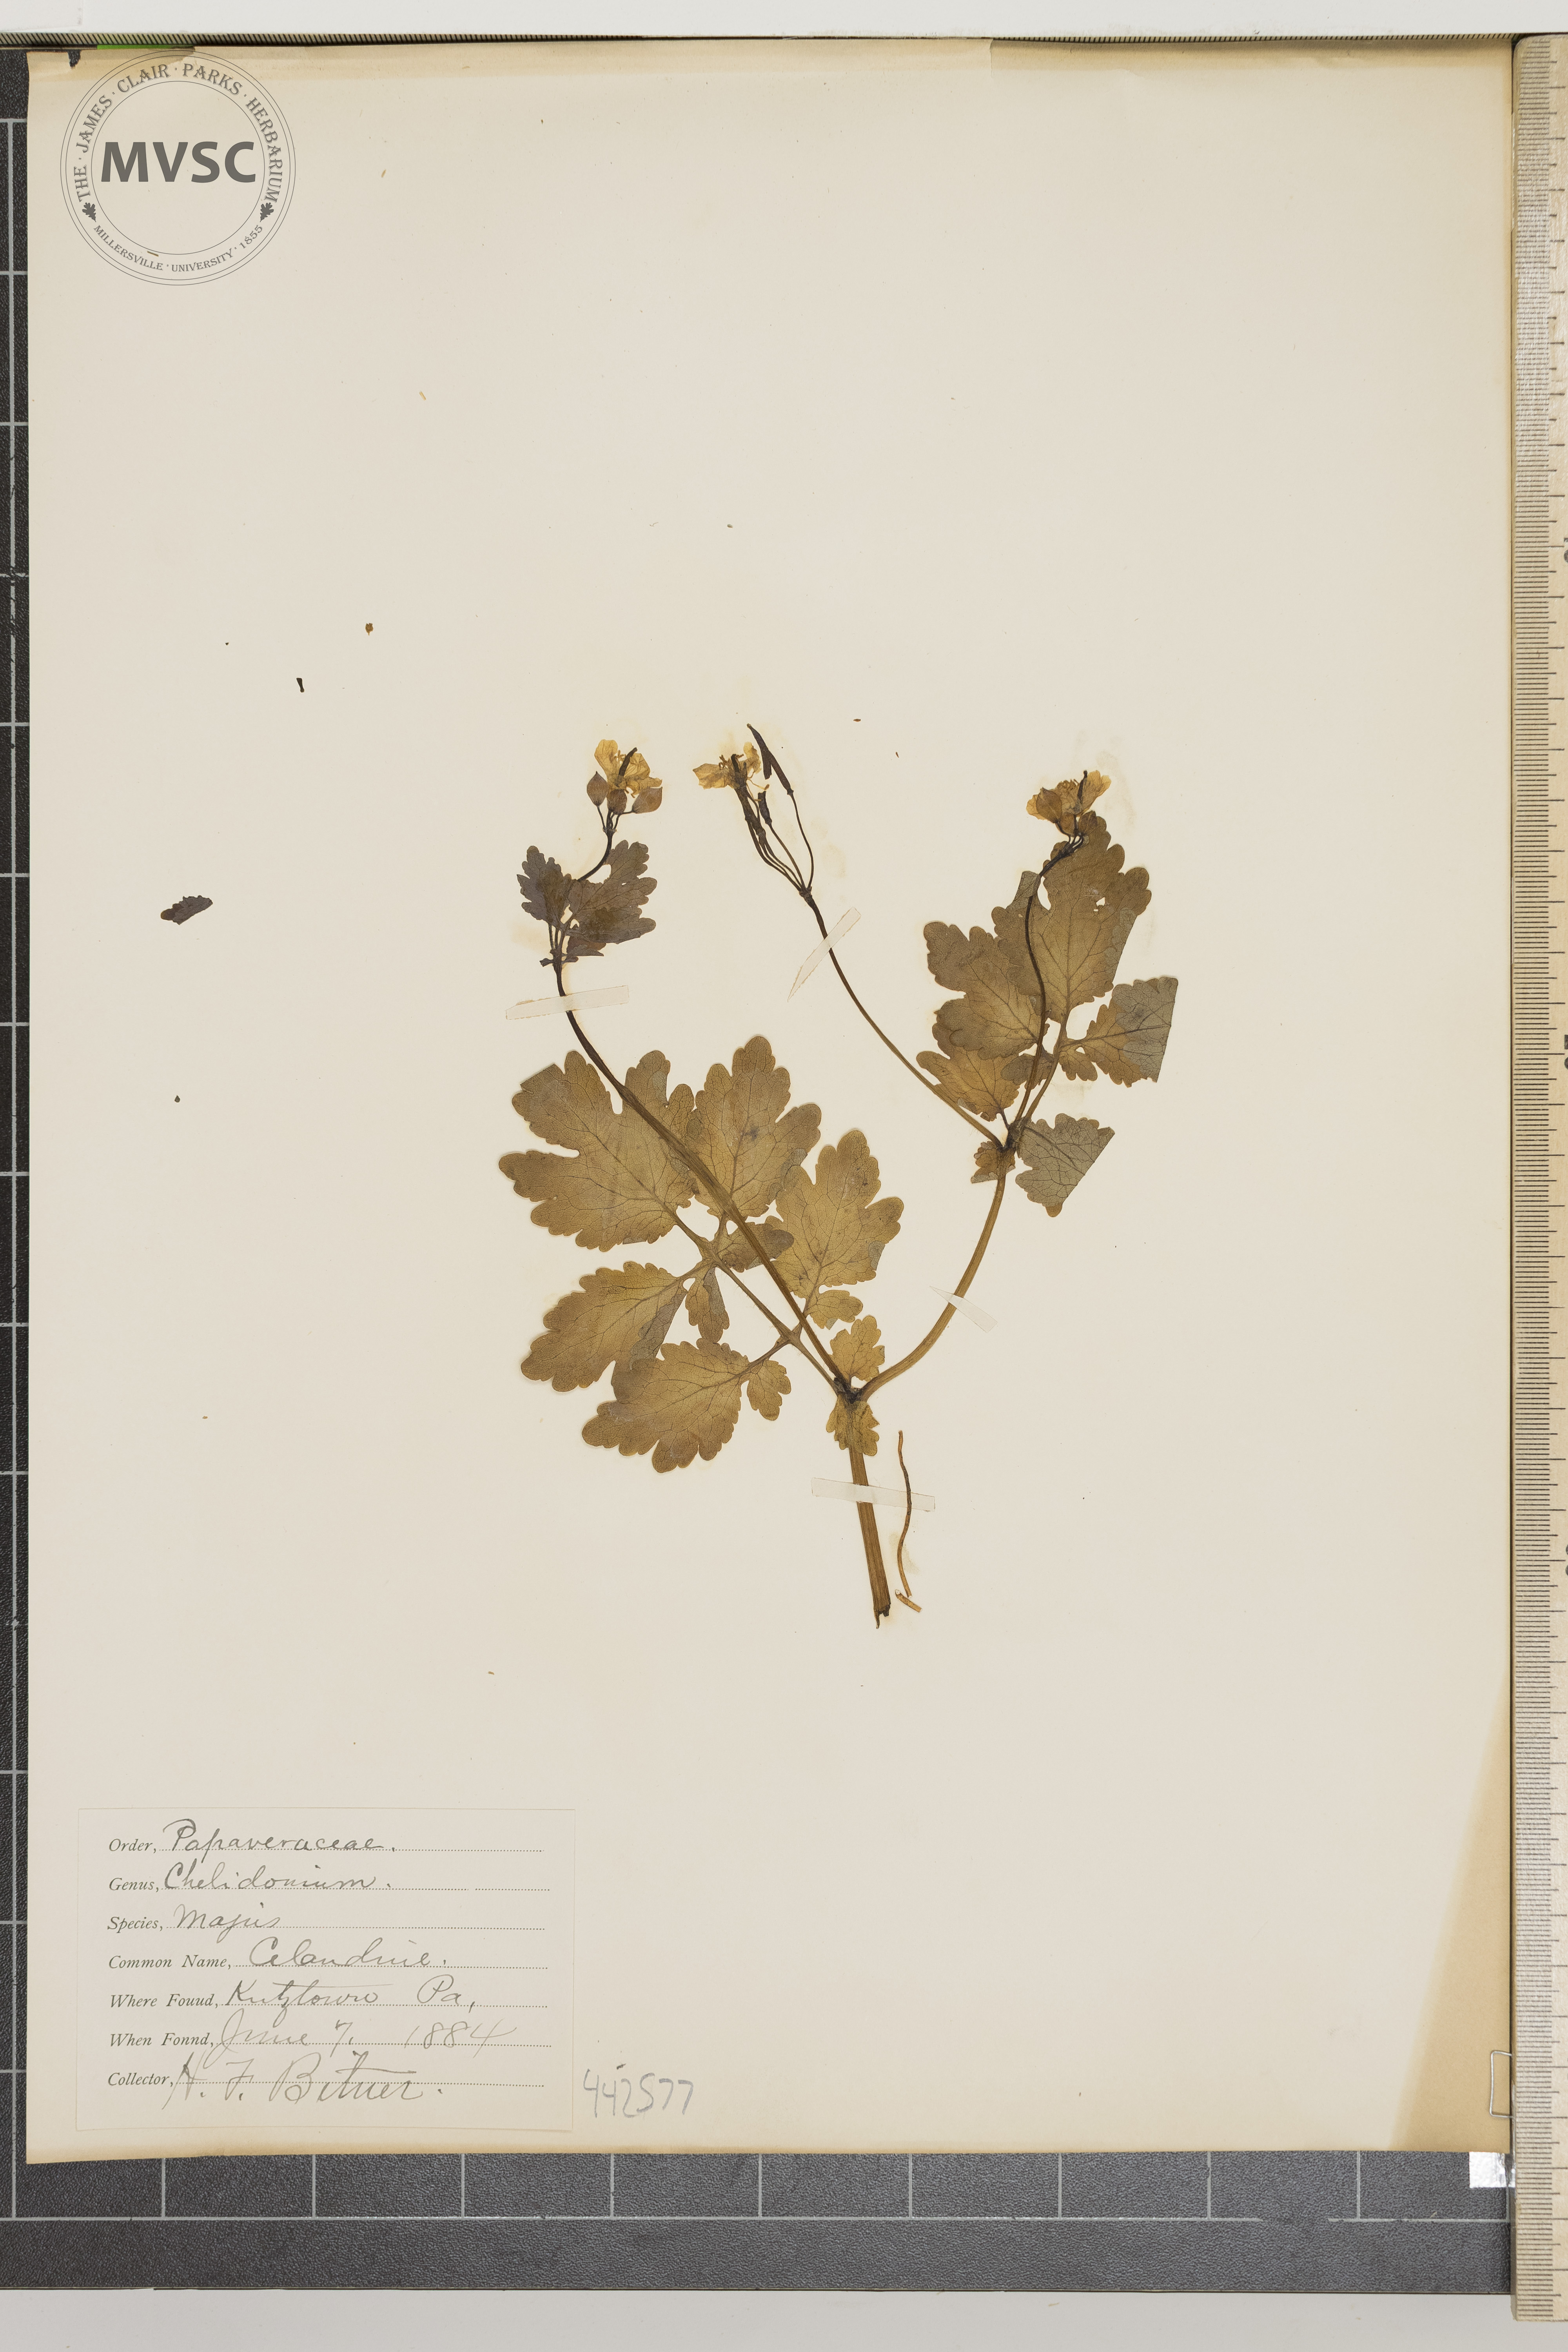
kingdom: Plantae
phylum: Tracheophyta
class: Magnoliopsida
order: Ranunculales
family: Papaveraceae
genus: Chelidonium
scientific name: Chelidonium majus
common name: Celandine
